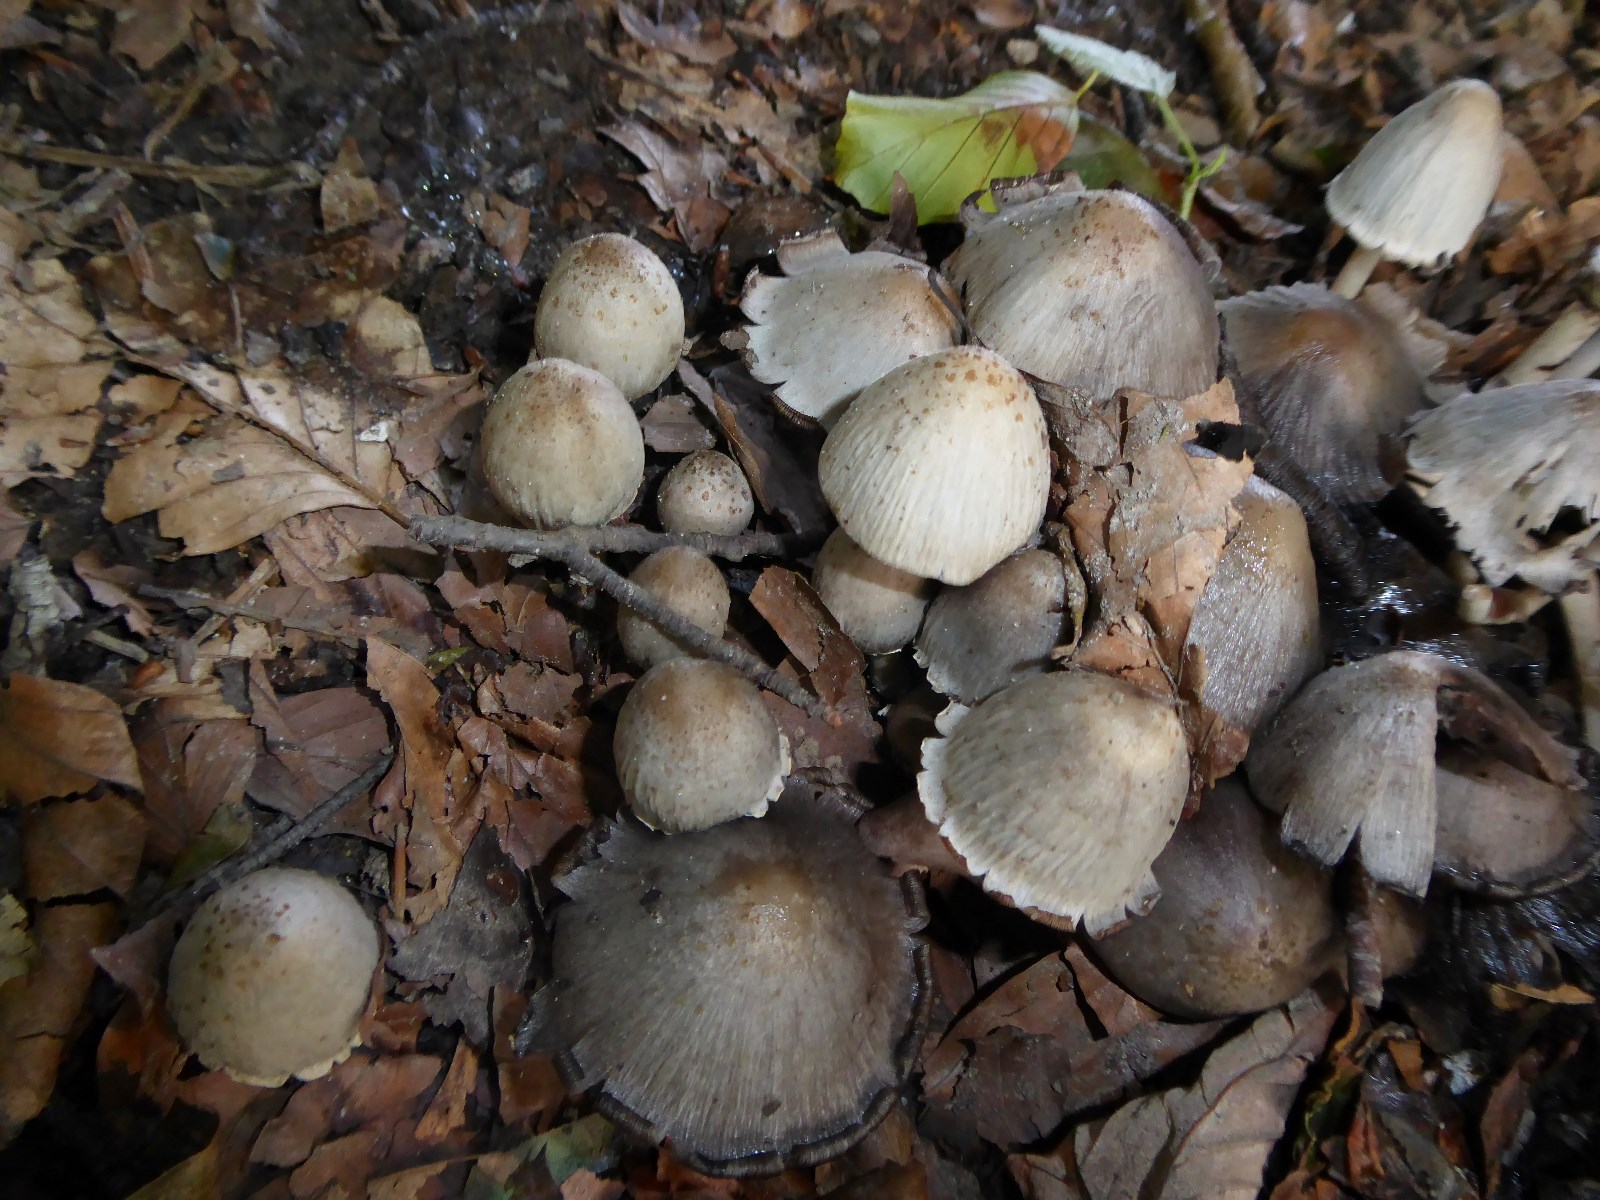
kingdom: Fungi
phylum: Basidiomycota
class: Agaricomycetes
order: Agaricales
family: Psathyrellaceae
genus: Coprinopsis
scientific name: Coprinopsis atramentaria
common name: almindelig blækhat
